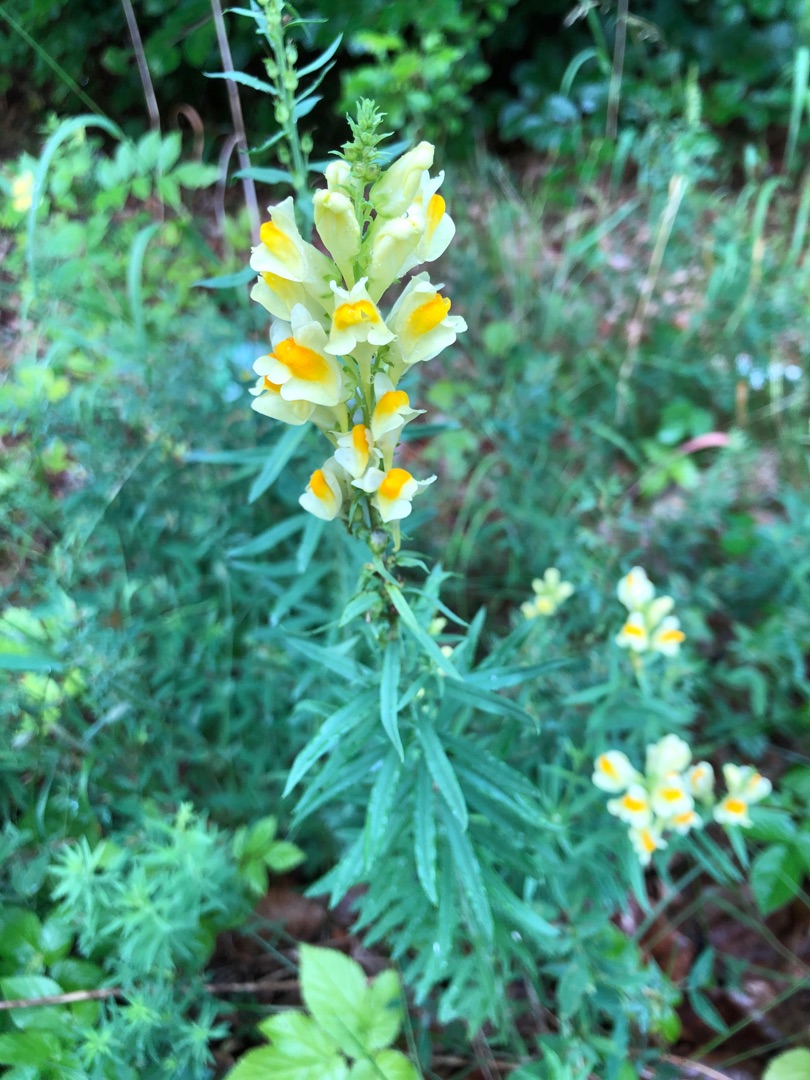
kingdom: Plantae
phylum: Tracheophyta
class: Magnoliopsida
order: Lamiales
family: Plantaginaceae
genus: Linaria
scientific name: Linaria vulgaris
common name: Almindelig torskemund
